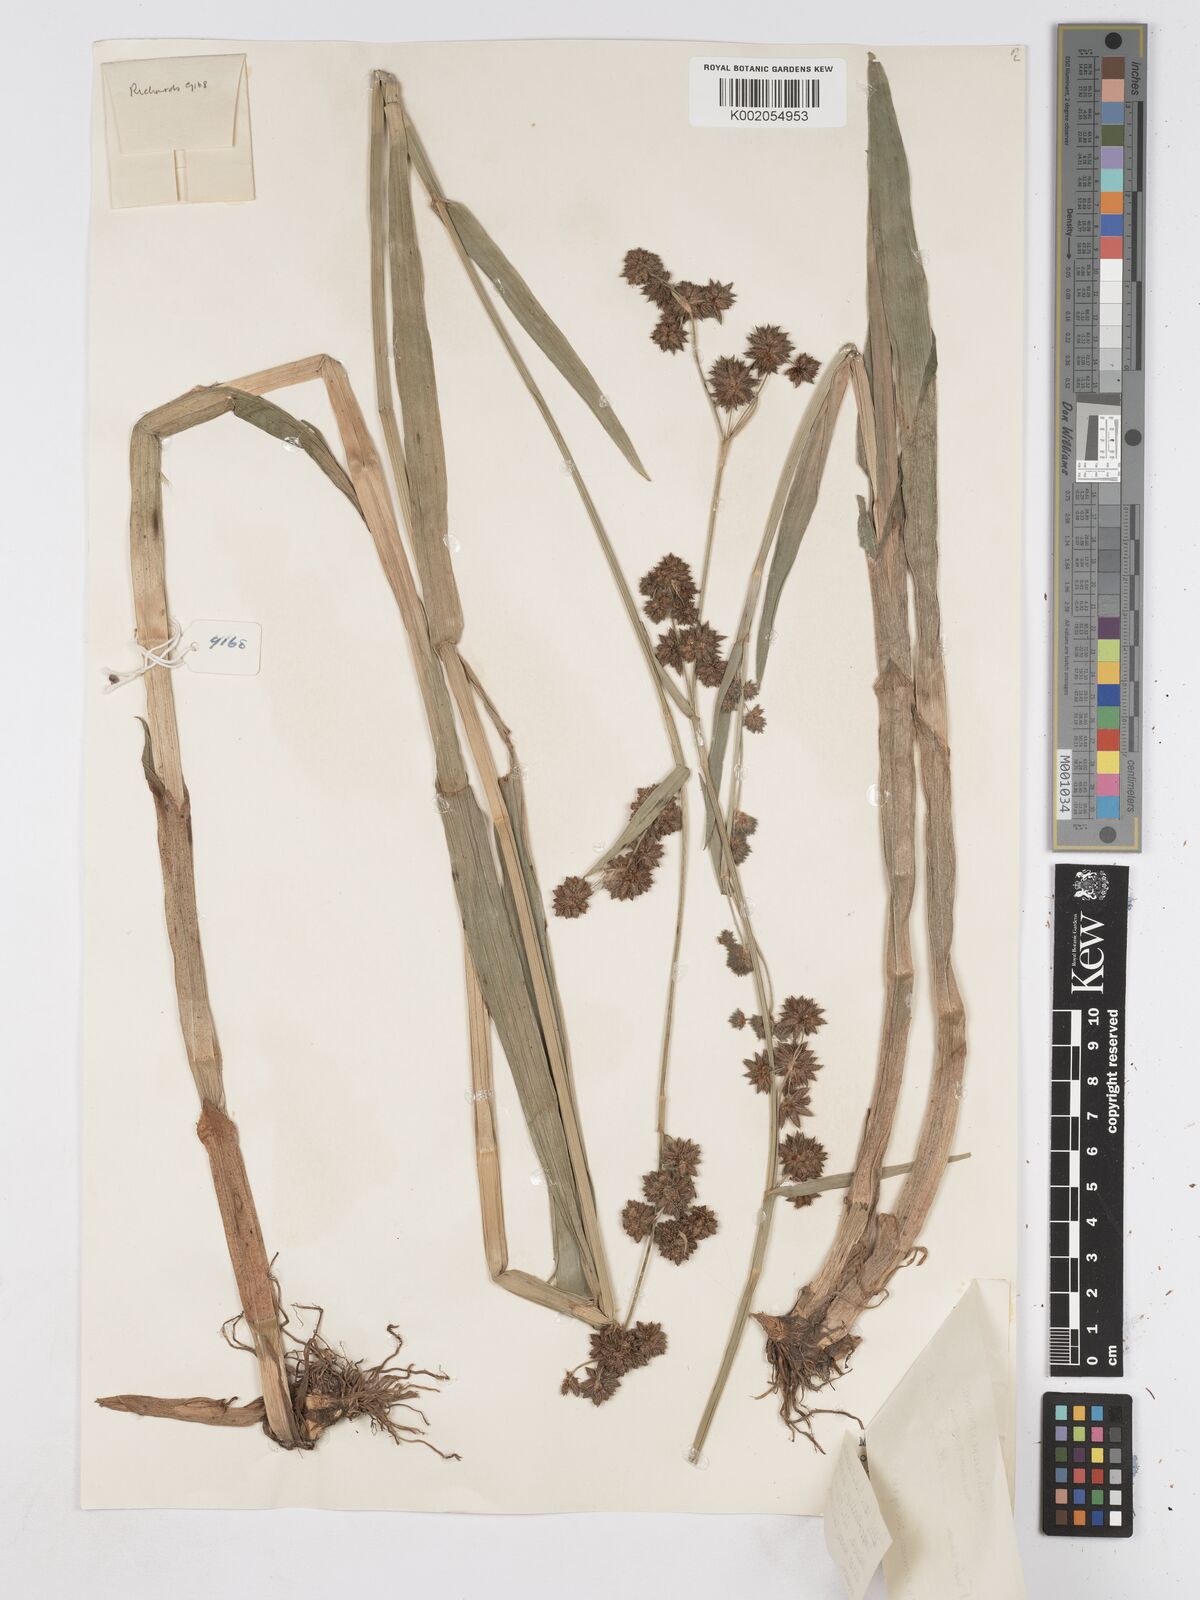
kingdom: Plantae
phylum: Tracheophyta
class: Liliopsida
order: Poales
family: Cyperaceae
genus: Fuirena
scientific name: Fuirena umbellata
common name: Yefen
